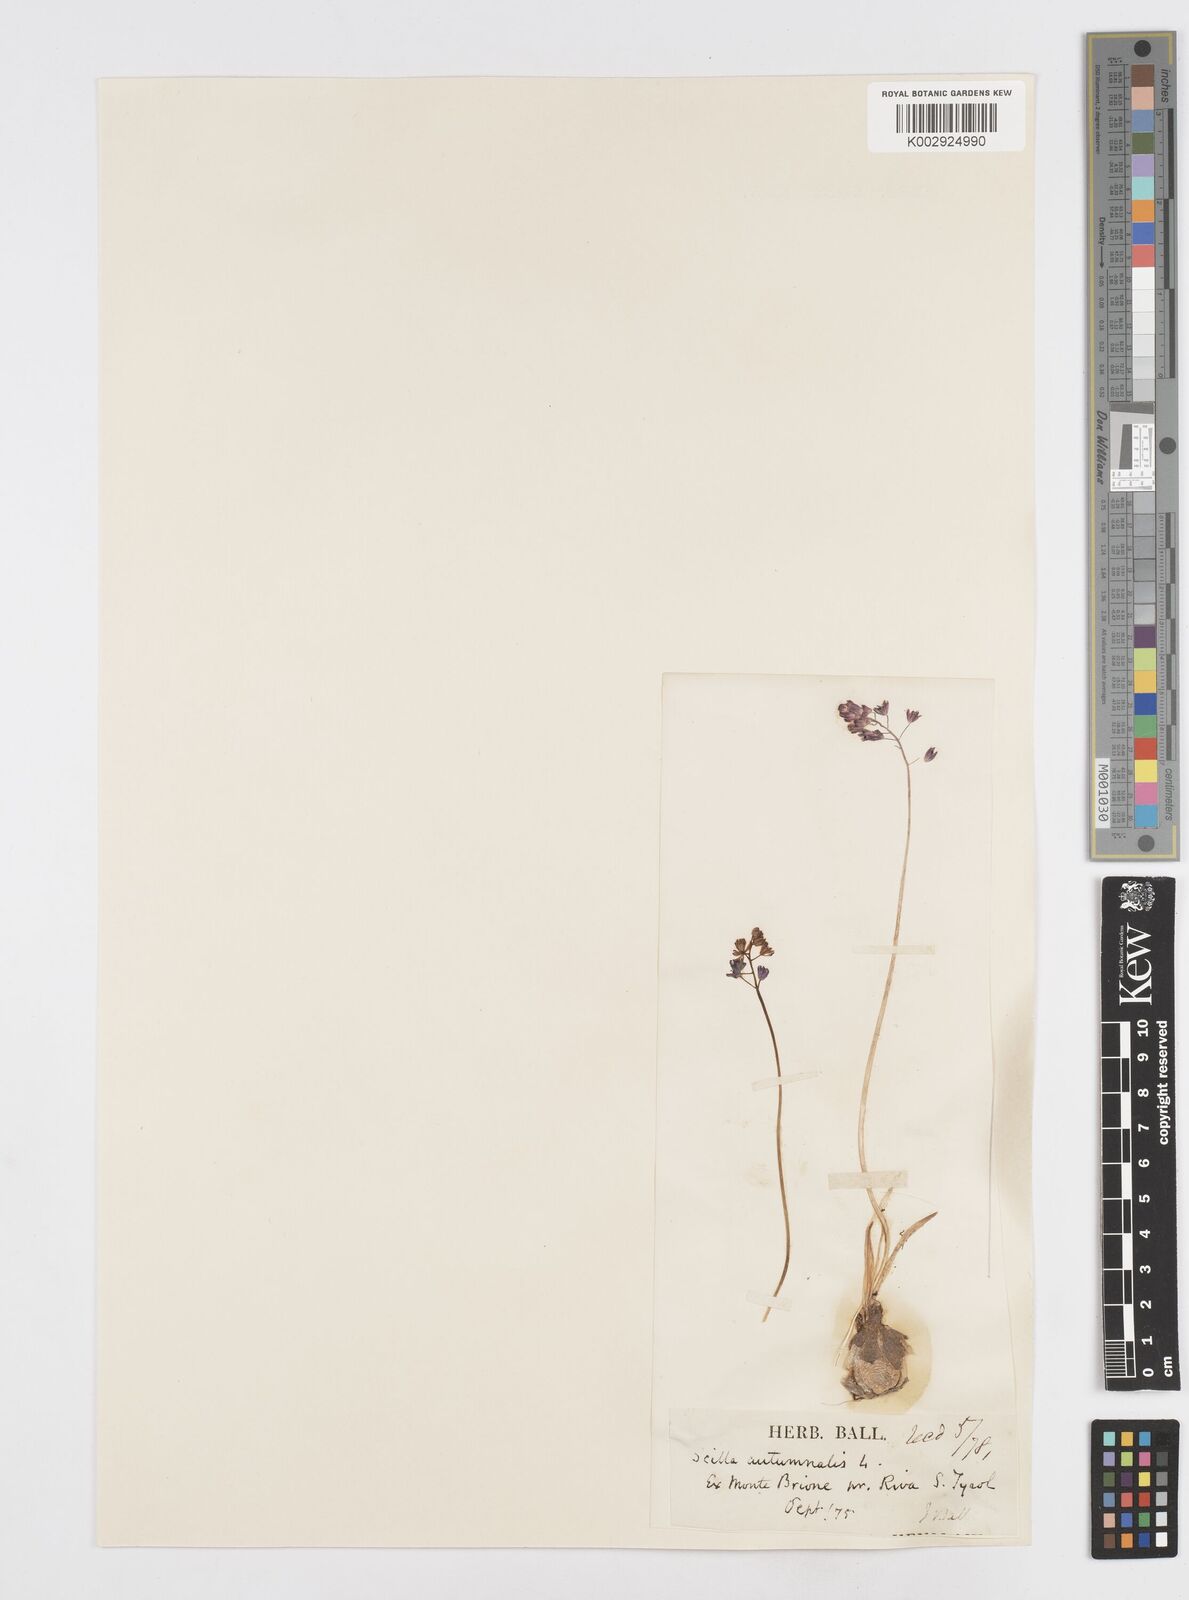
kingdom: Plantae
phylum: Tracheophyta
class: Liliopsida
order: Asparagales
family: Asparagaceae
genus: Prospero
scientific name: Prospero autumnale
